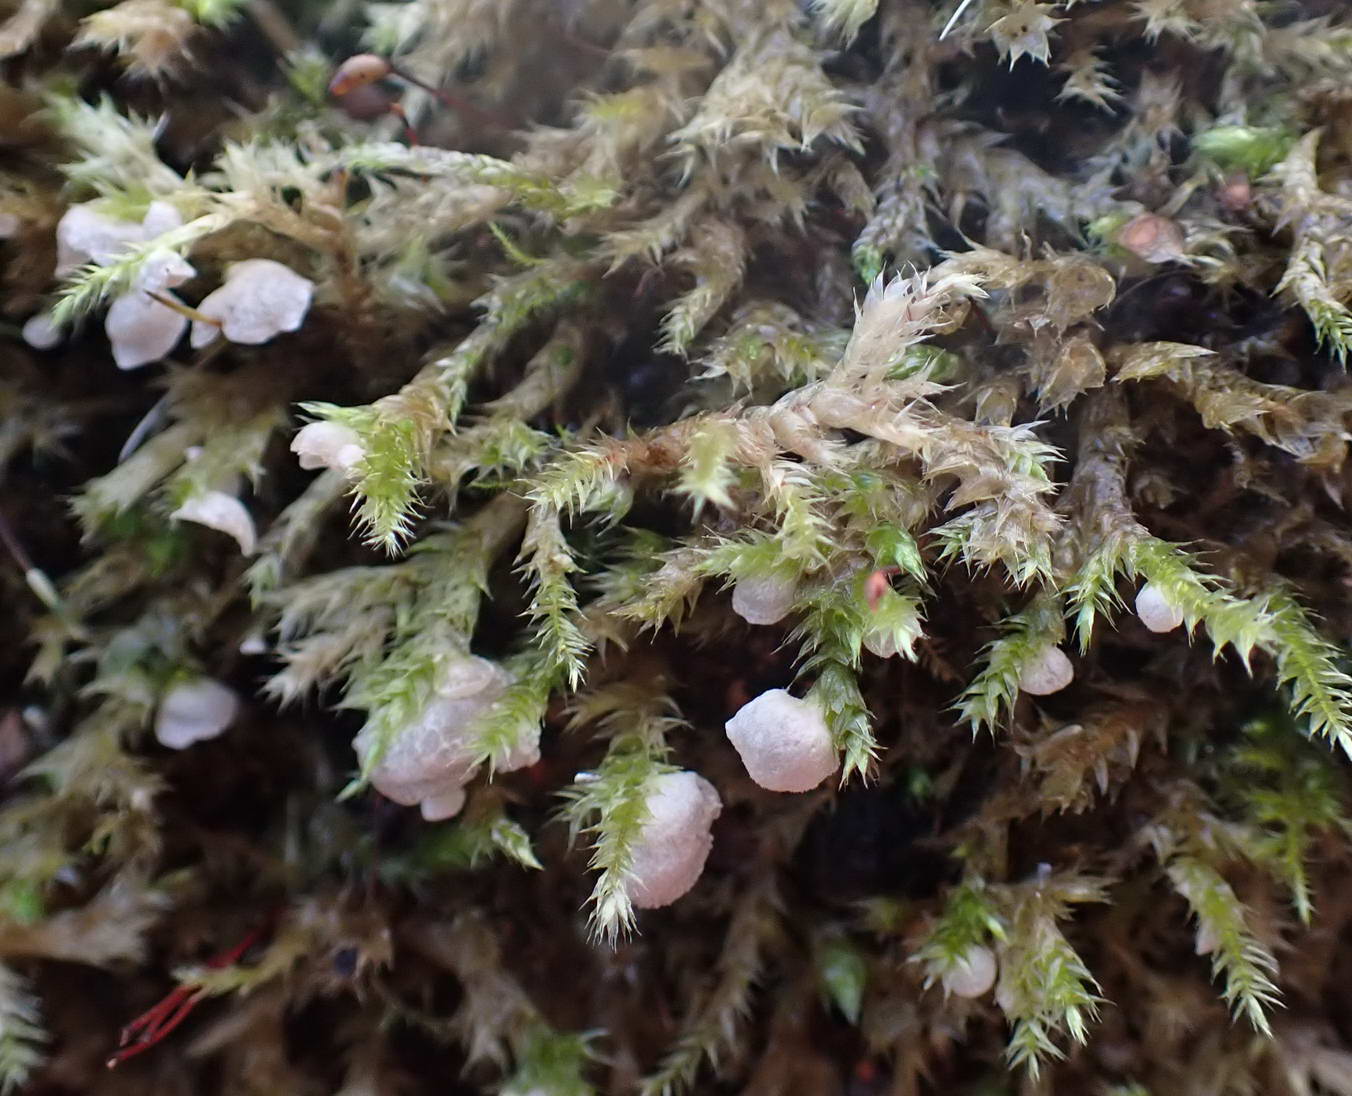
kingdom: Fungi
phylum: Basidiomycota
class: Agaricomycetes
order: Agaricales
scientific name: Agaricales
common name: champignonordenen
